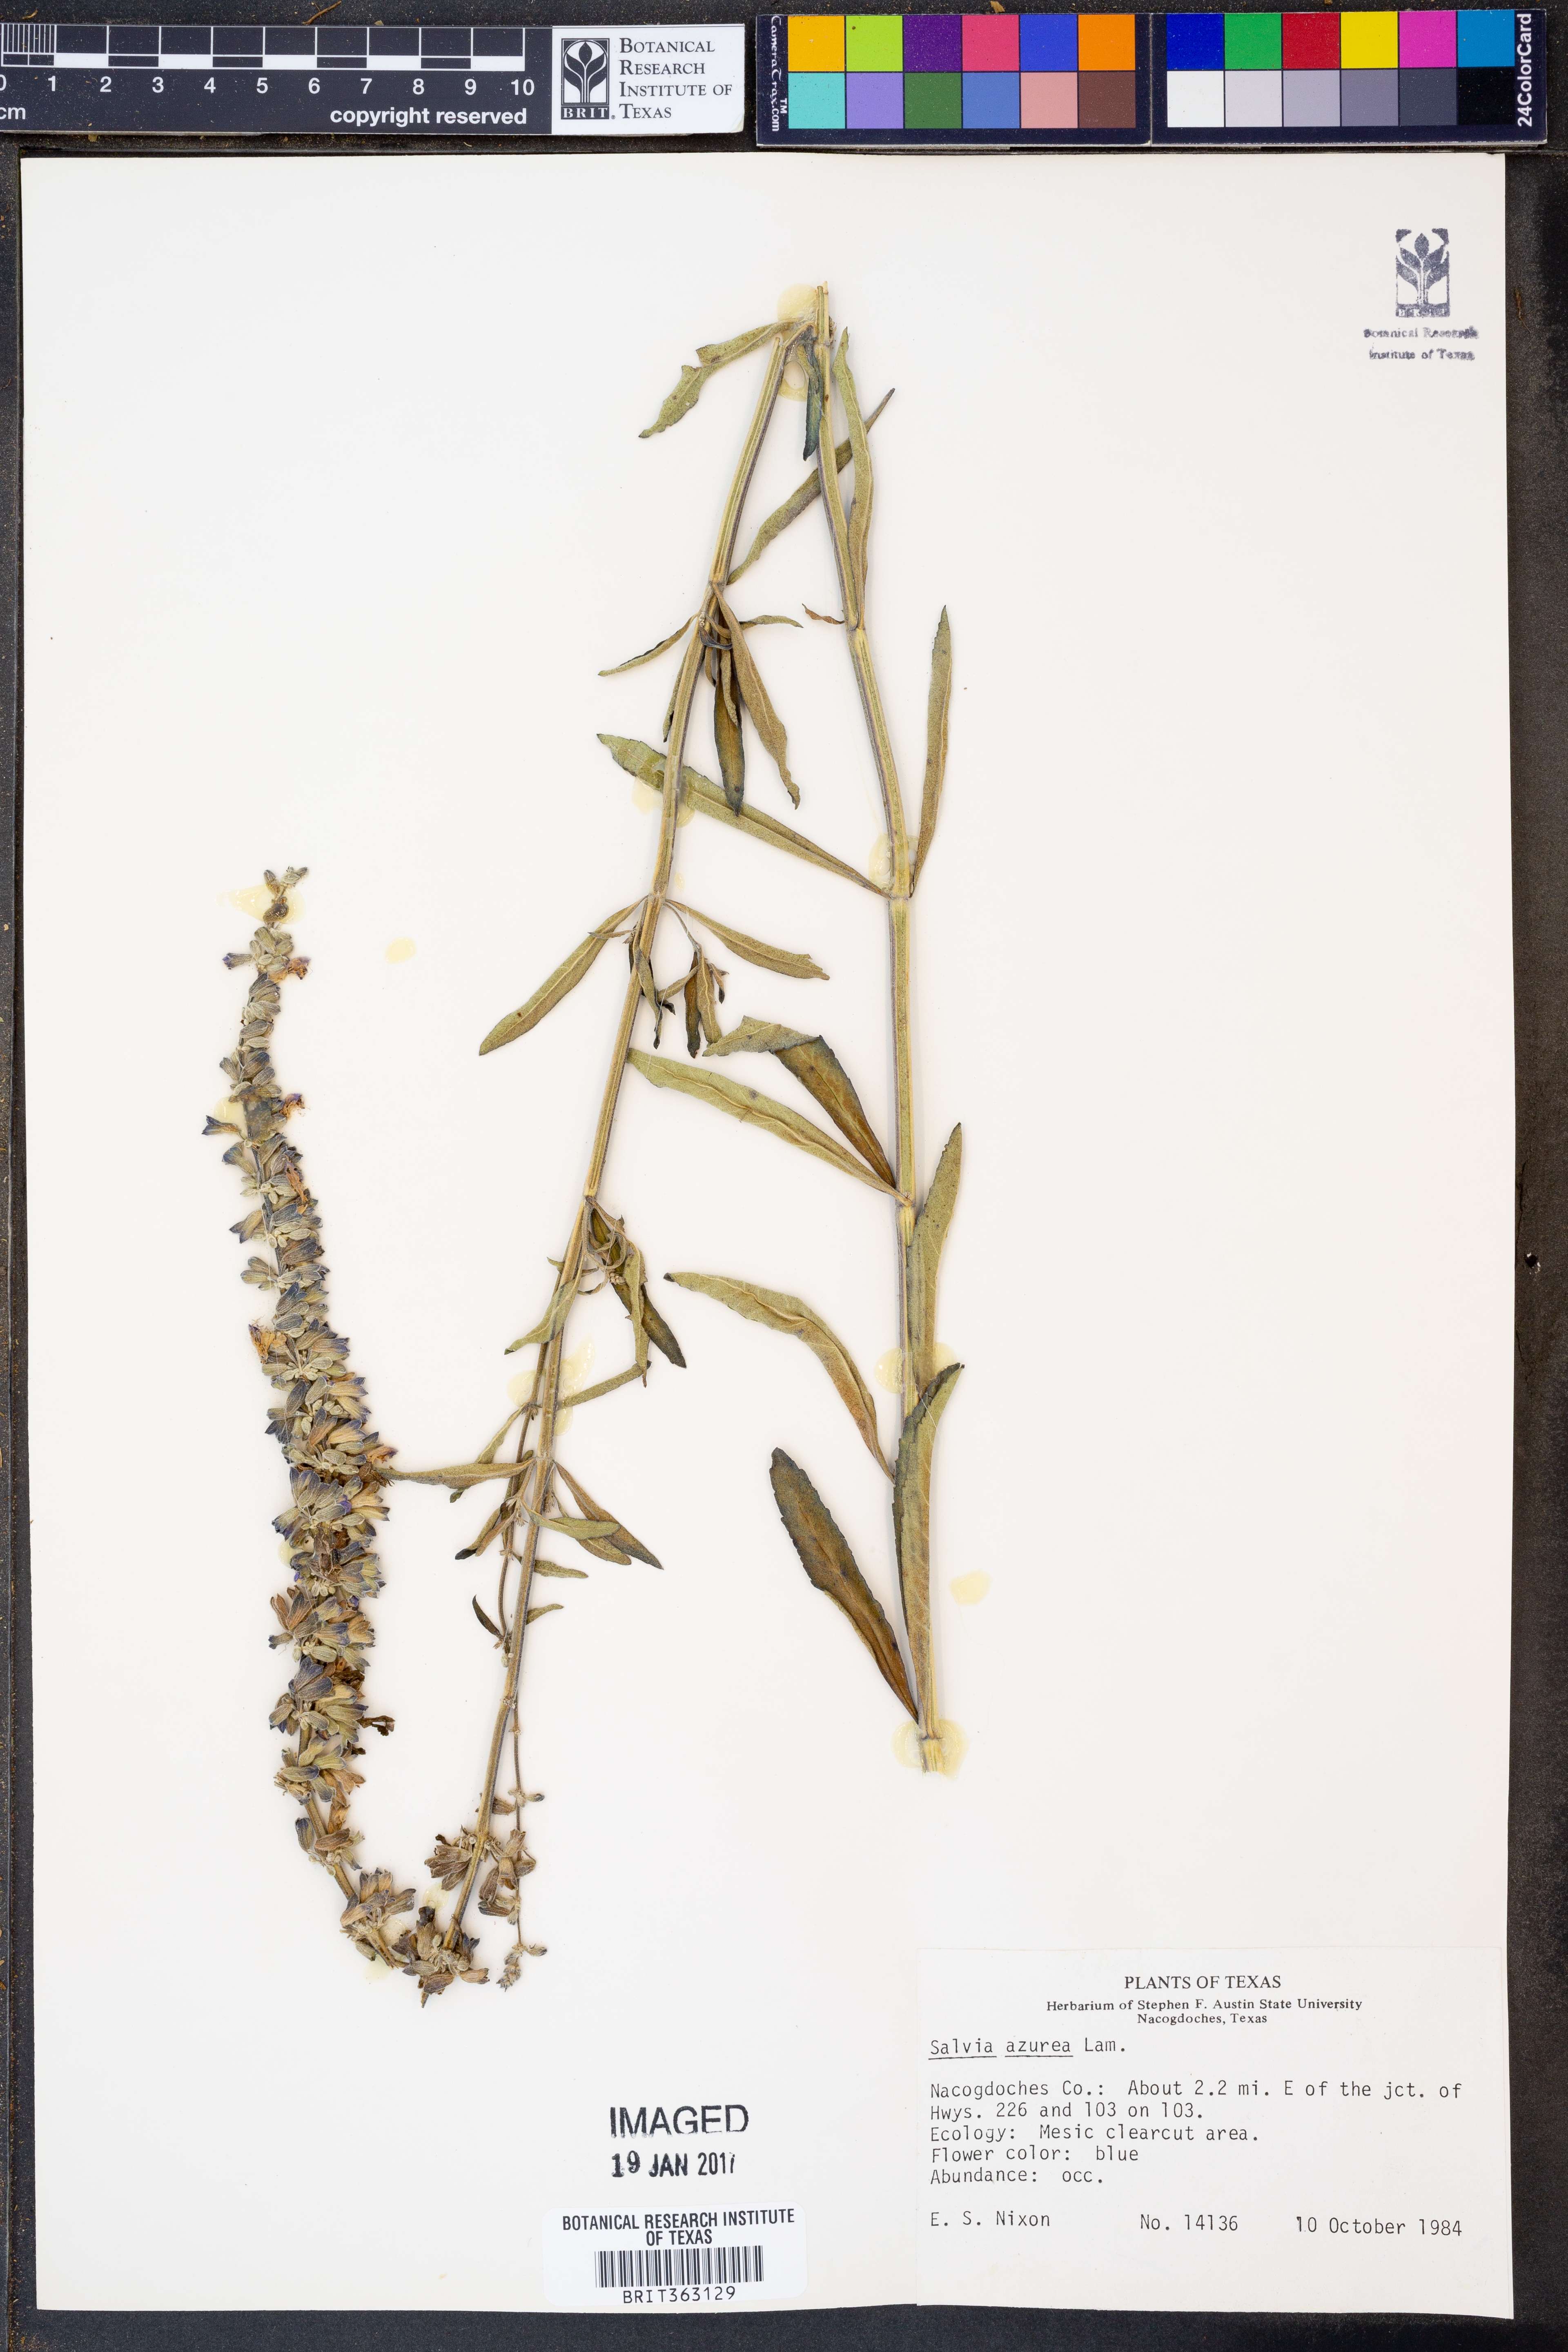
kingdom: Plantae
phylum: Tracheophyta
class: Magnoliopsida
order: Lamiales
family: Lamiaceae
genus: Salvia
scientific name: Salvia azurea
